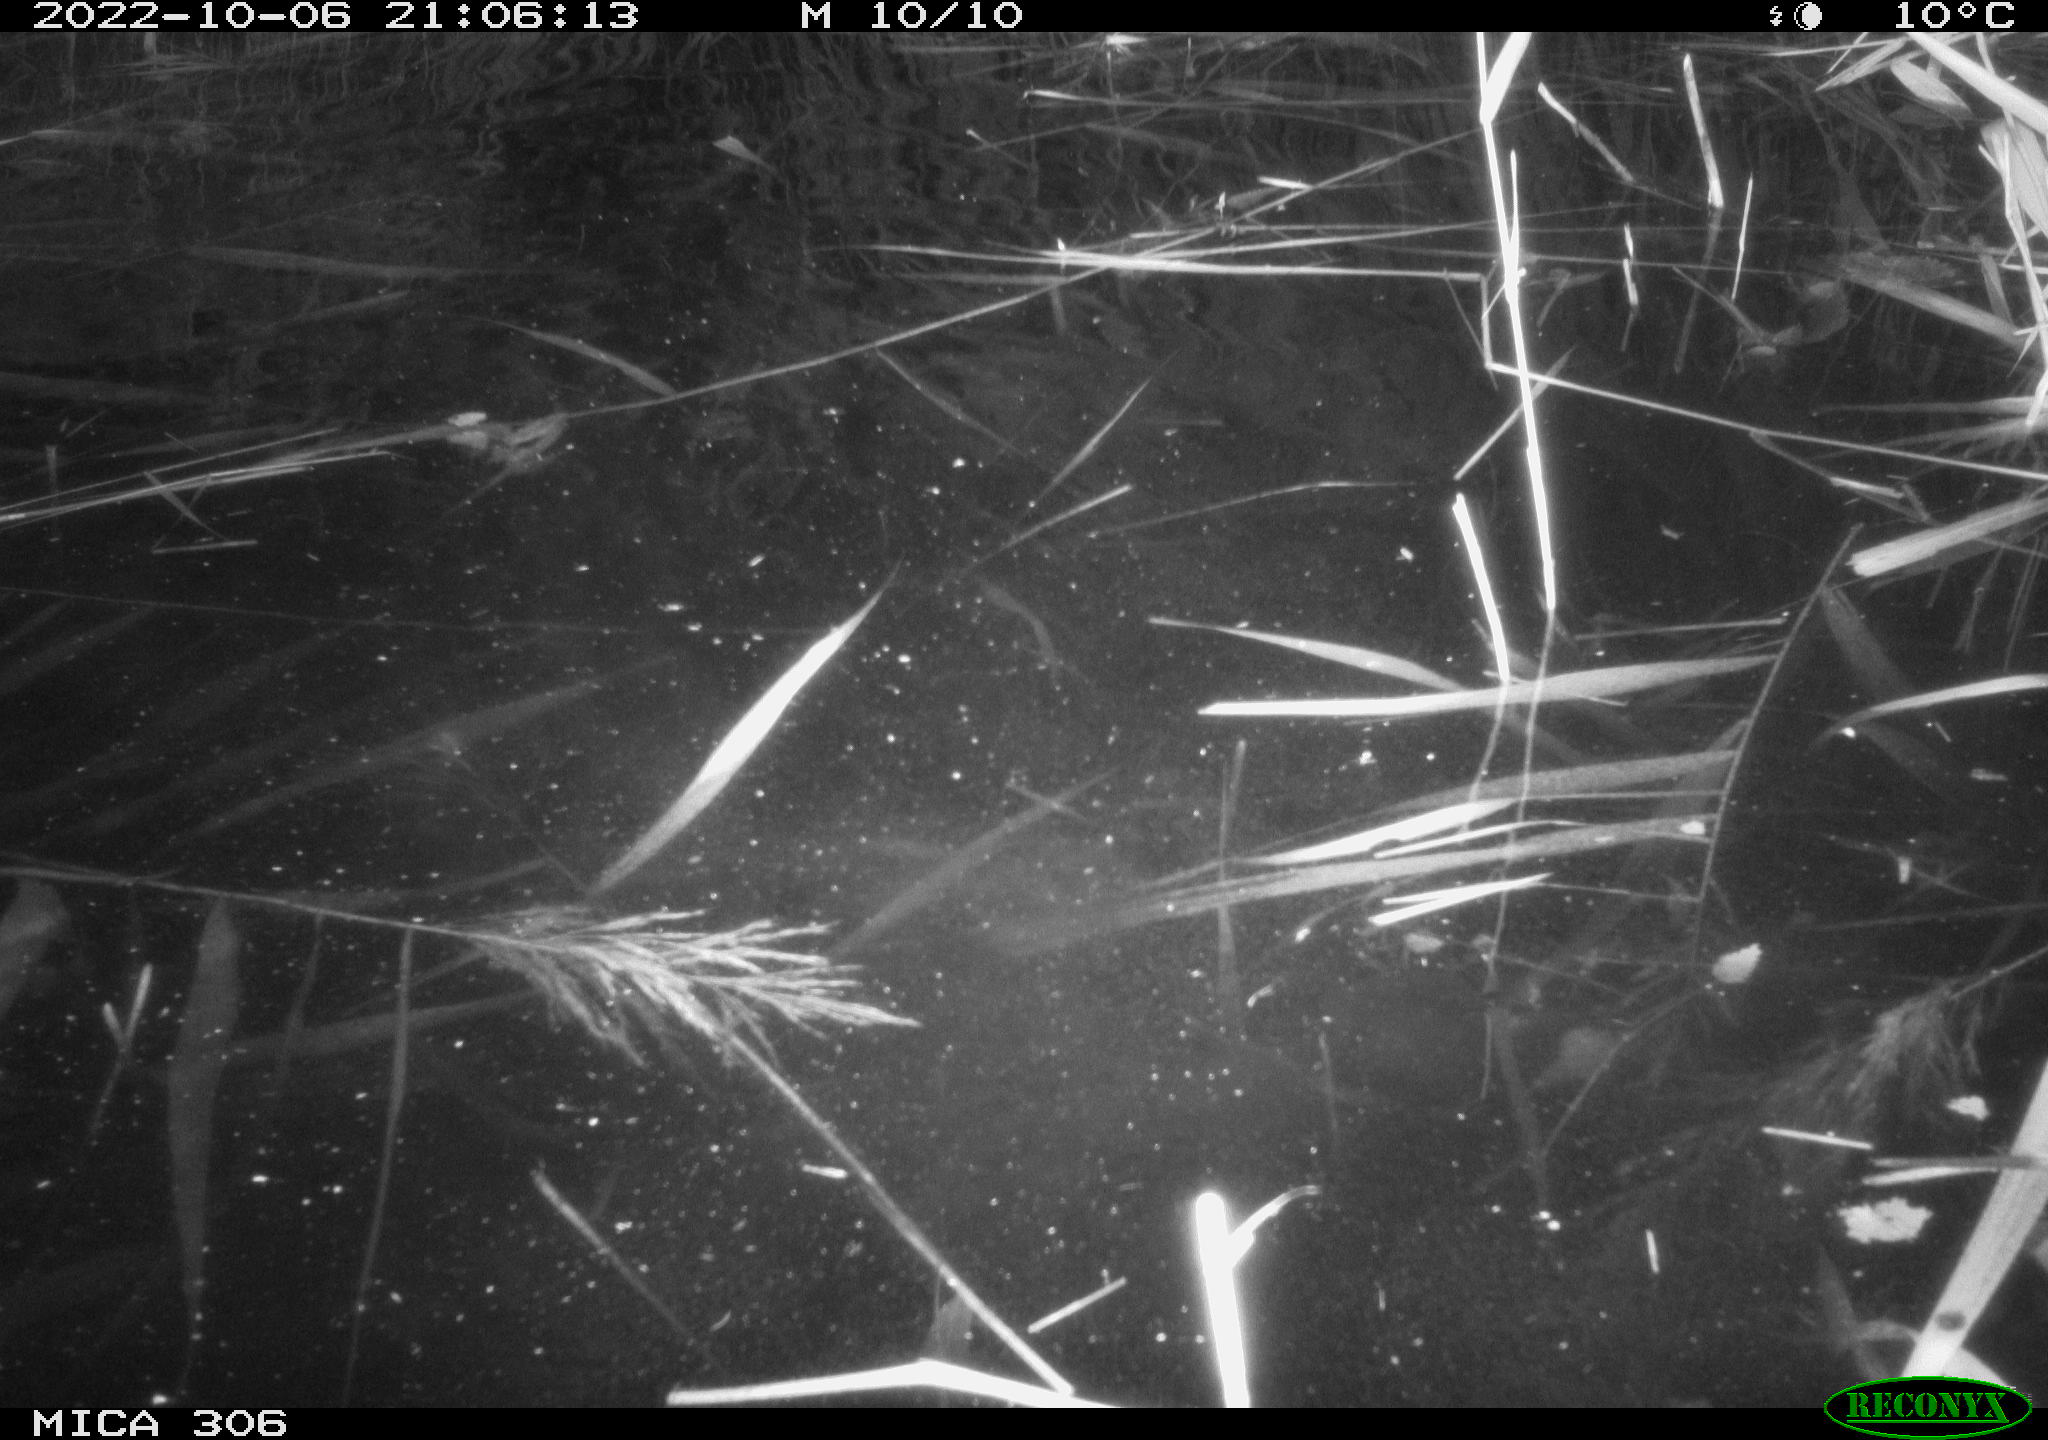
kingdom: Animalia
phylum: Chordata
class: Mammalia
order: Rodentia
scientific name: Rodentia
